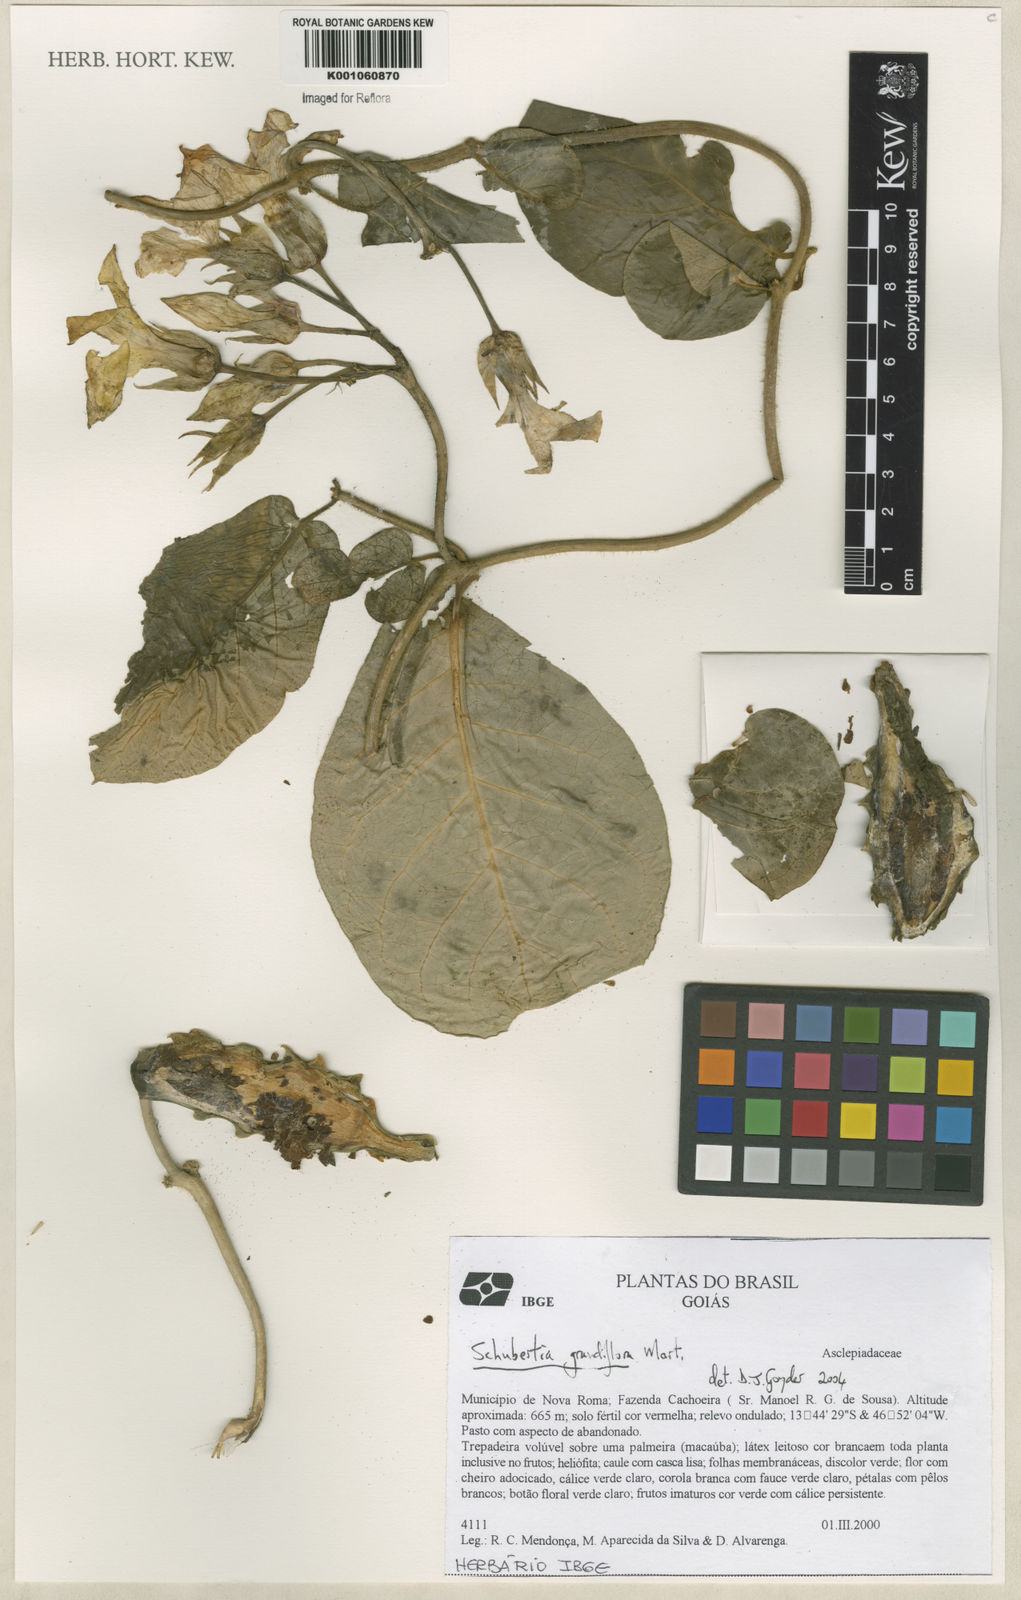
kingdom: Plantae
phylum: Tracheophyta
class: Magnoliopsida
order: Gentianales
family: Apocynaceae
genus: Macroscepis
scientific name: Macroscepis grandiflora
